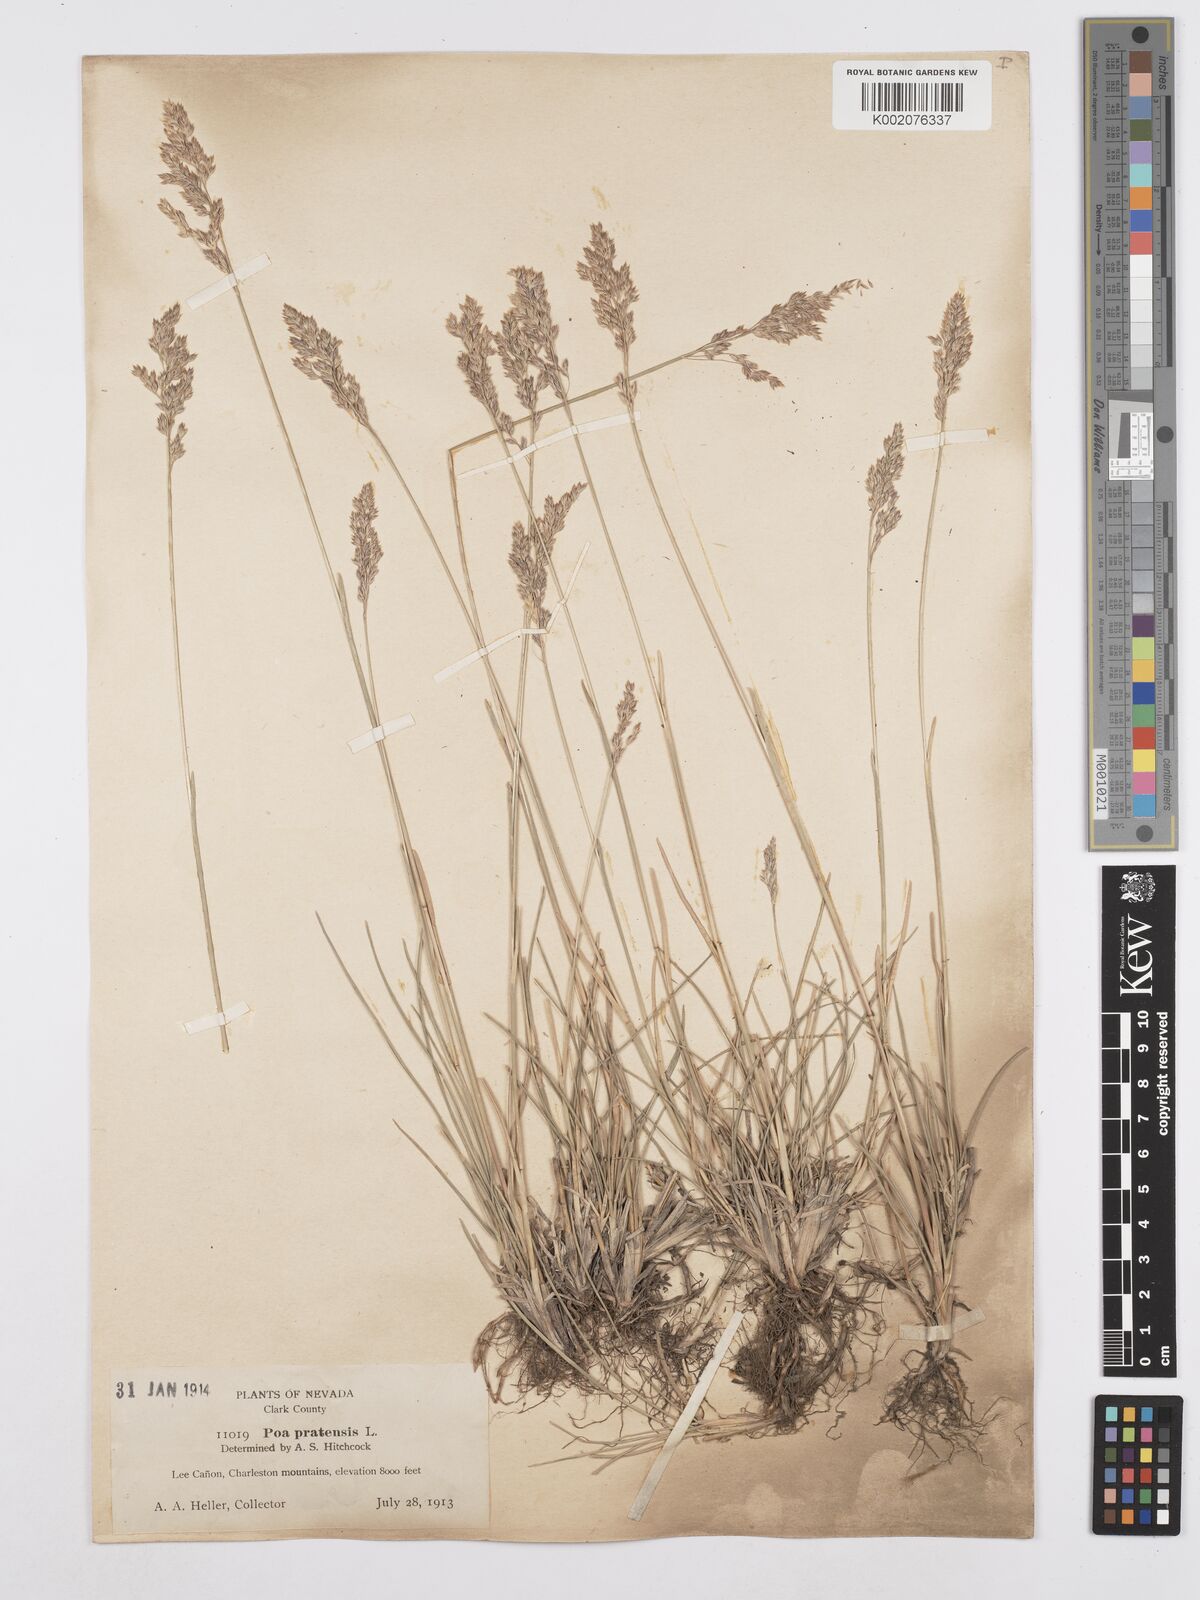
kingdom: Plantae
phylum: Tracheophyta
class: Liliopsida
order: Poales
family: Poaceae
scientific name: Poaceae
